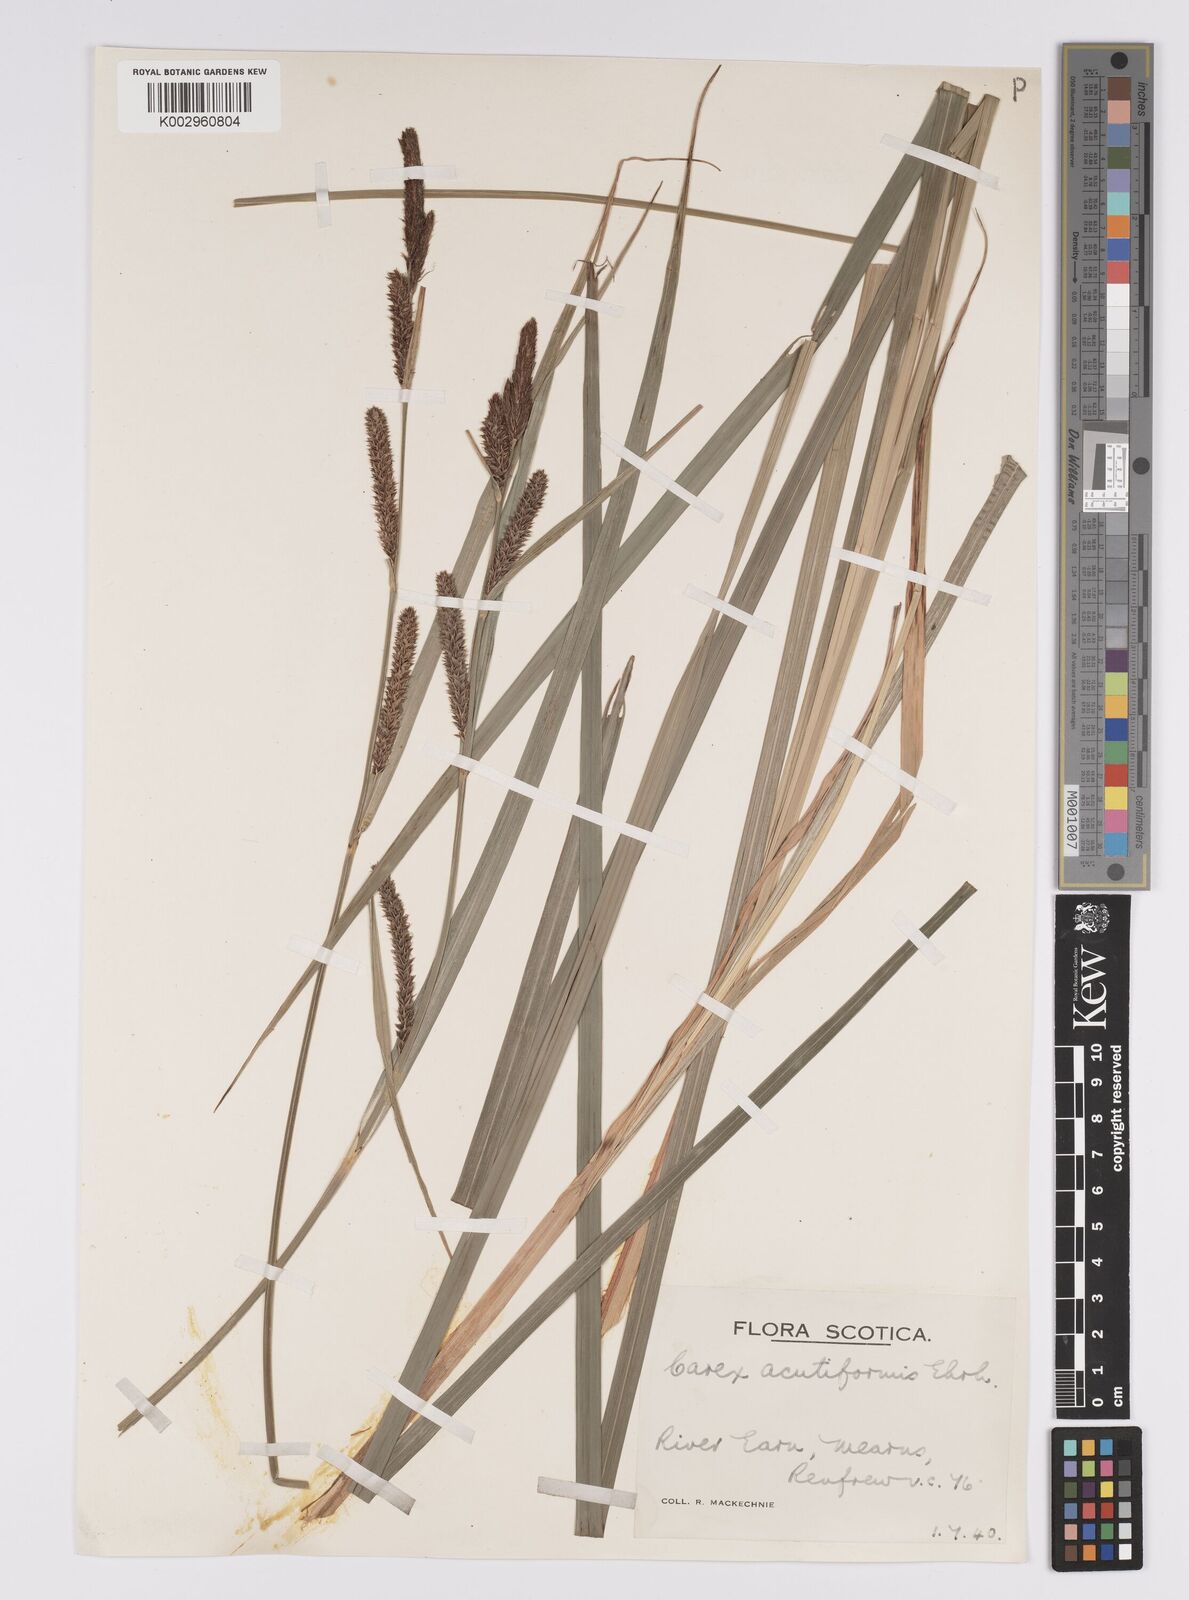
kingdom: Plantae
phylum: Tracheophyta
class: Liliopsida
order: Poales
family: Cyperaceae
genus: Carex
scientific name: Carex acutiformis
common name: Lesser pond-sedge
